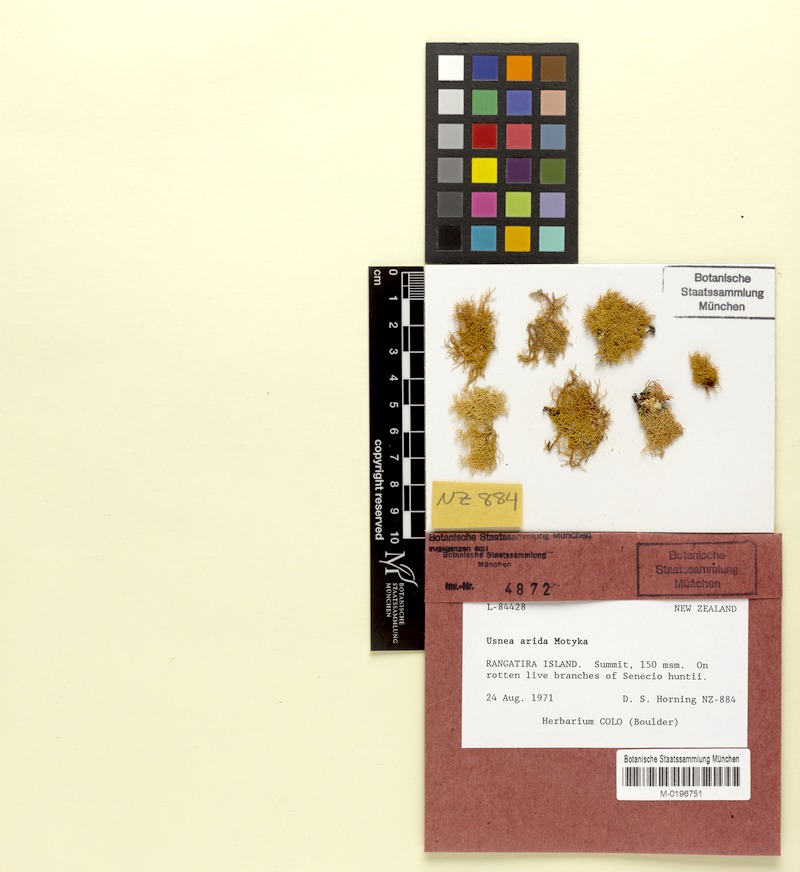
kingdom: Fungi
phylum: Ascomycota
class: Lecanoromycetes
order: Lecanorales
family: Parmeliaceae
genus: Usnea
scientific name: Usnea rubrotincta
